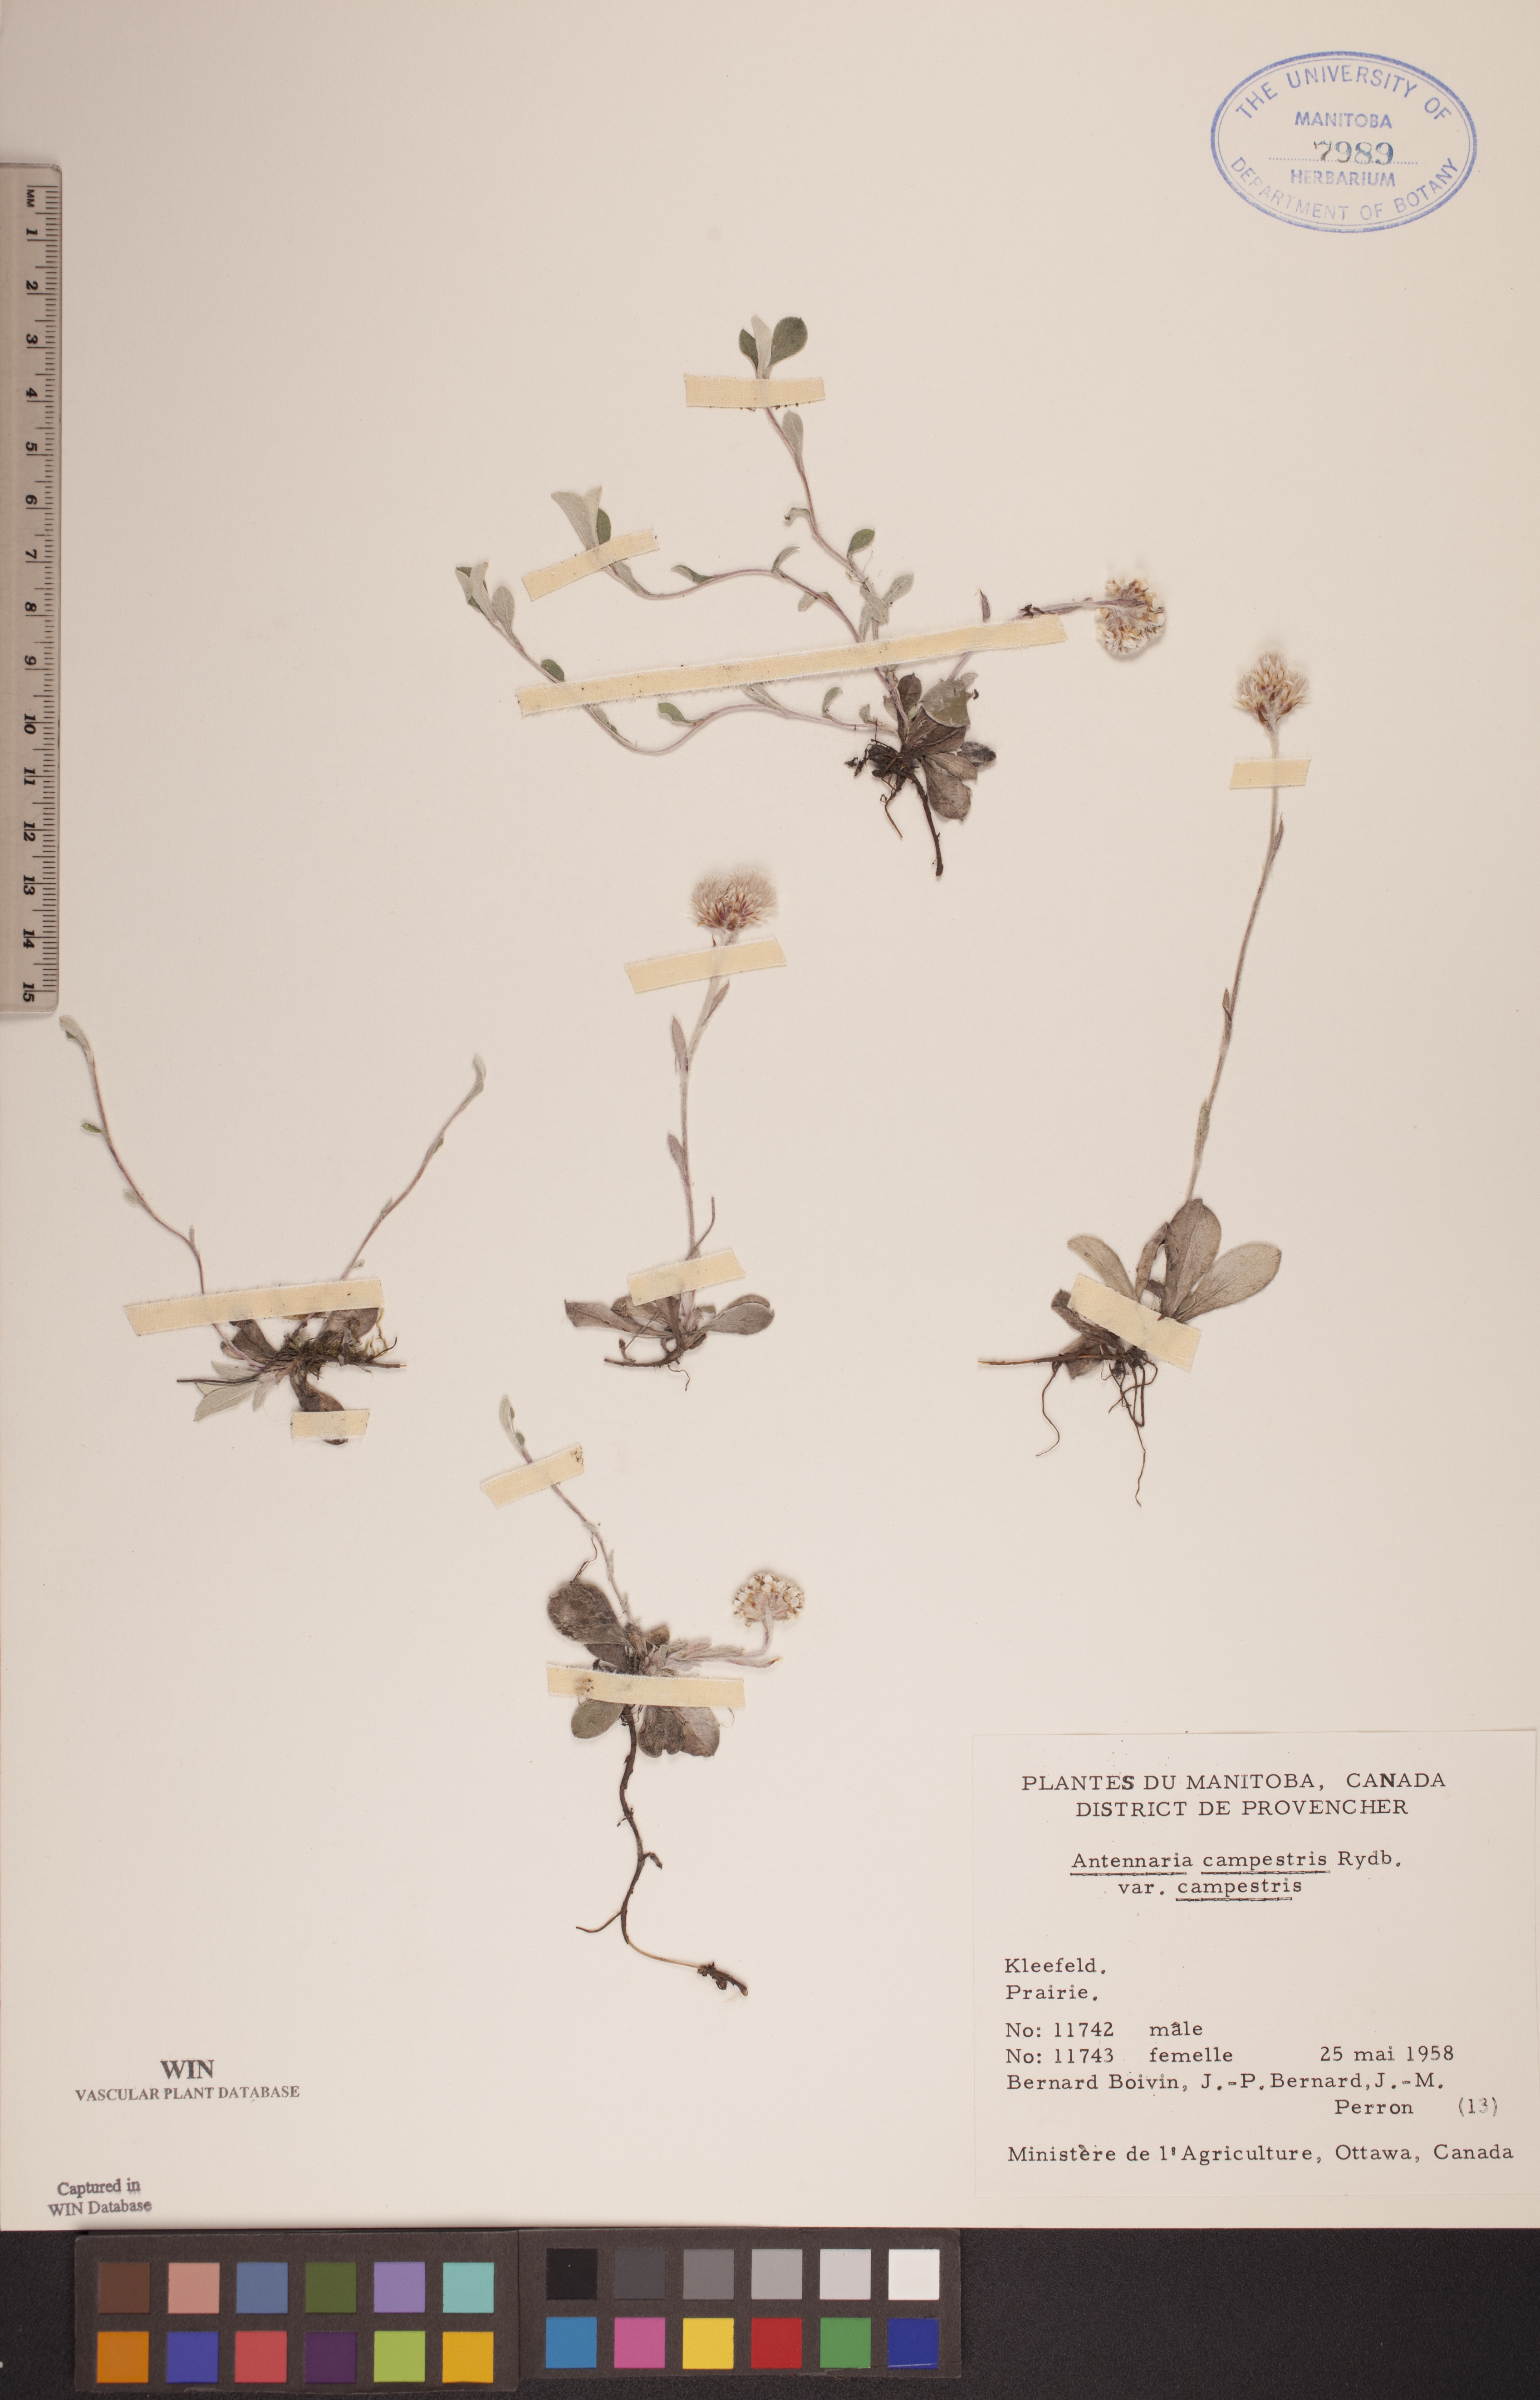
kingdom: Plantae
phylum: Tracheophyta
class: Magnoliopsida
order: Asterales
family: Asteraceae
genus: Antennaria
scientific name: Antennaria neglecta
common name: Field pussytoes
